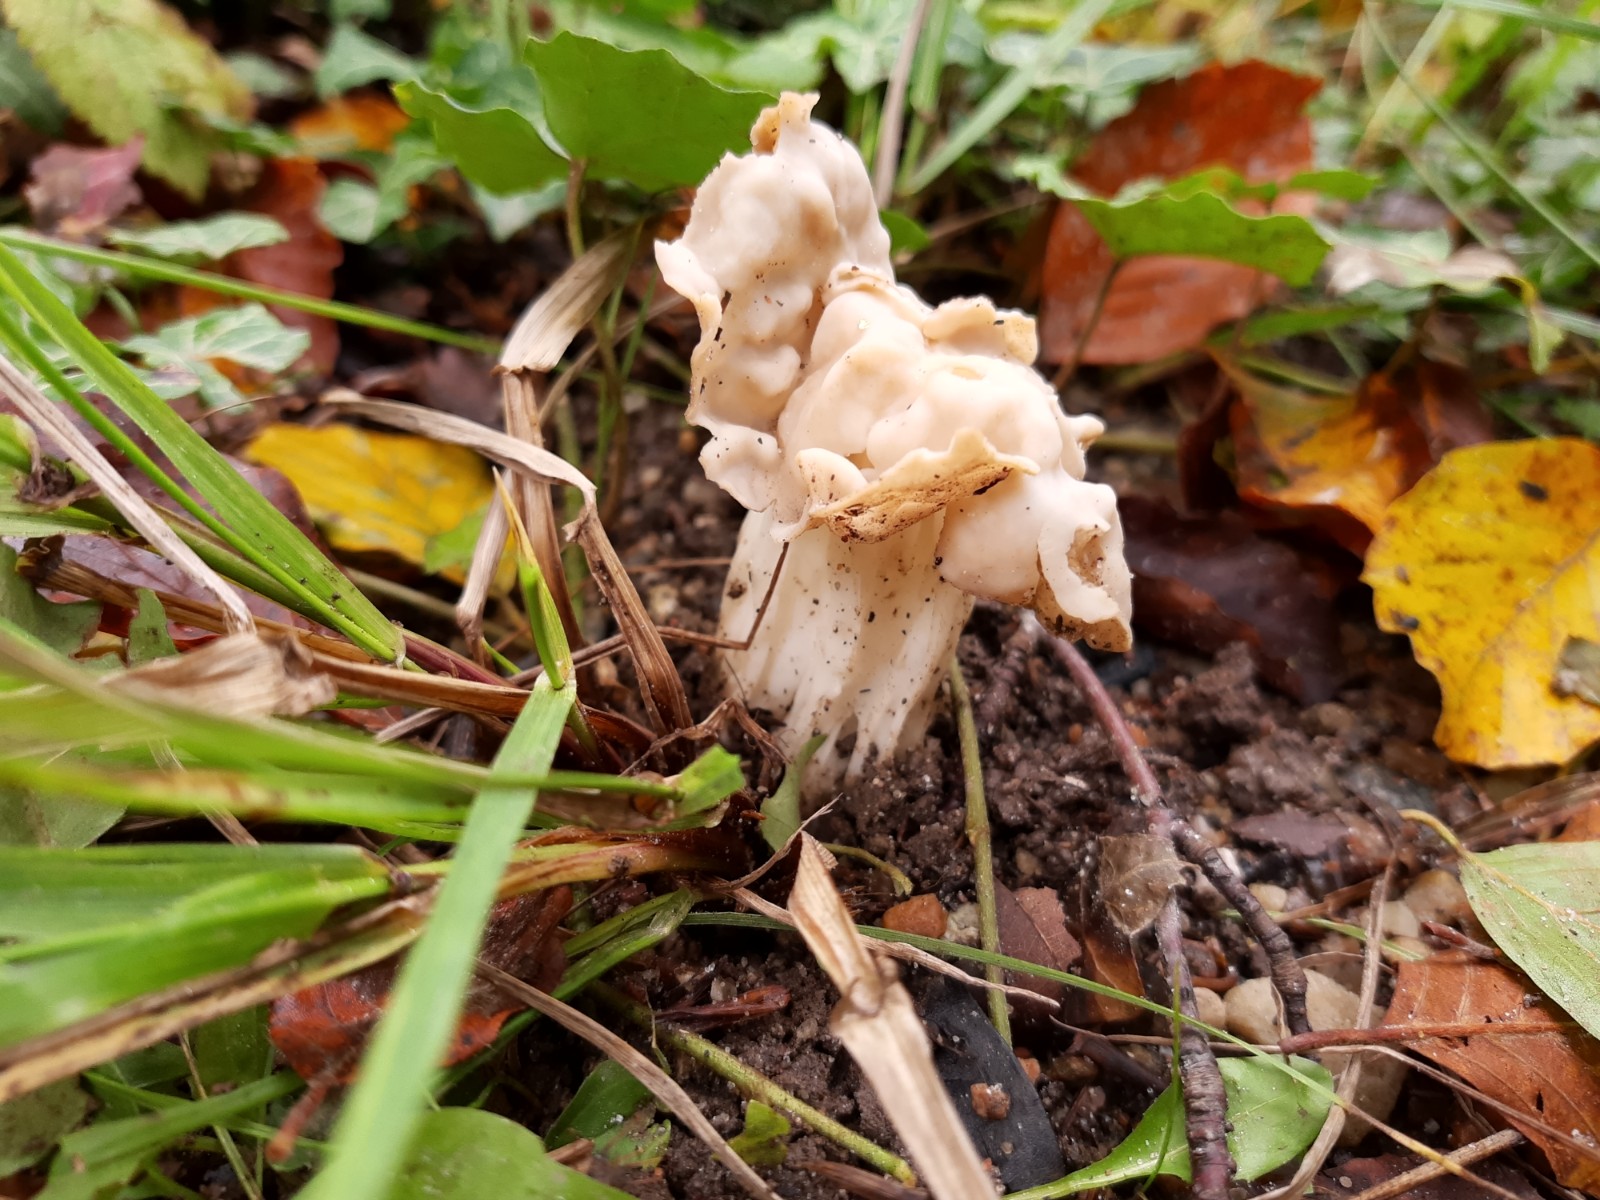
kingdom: Fungi
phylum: Ascomycota
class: Pezizomycetes
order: Pezizales
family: Helvellaceae
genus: Helvella
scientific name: Helvella crispa
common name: kruset foldhat
